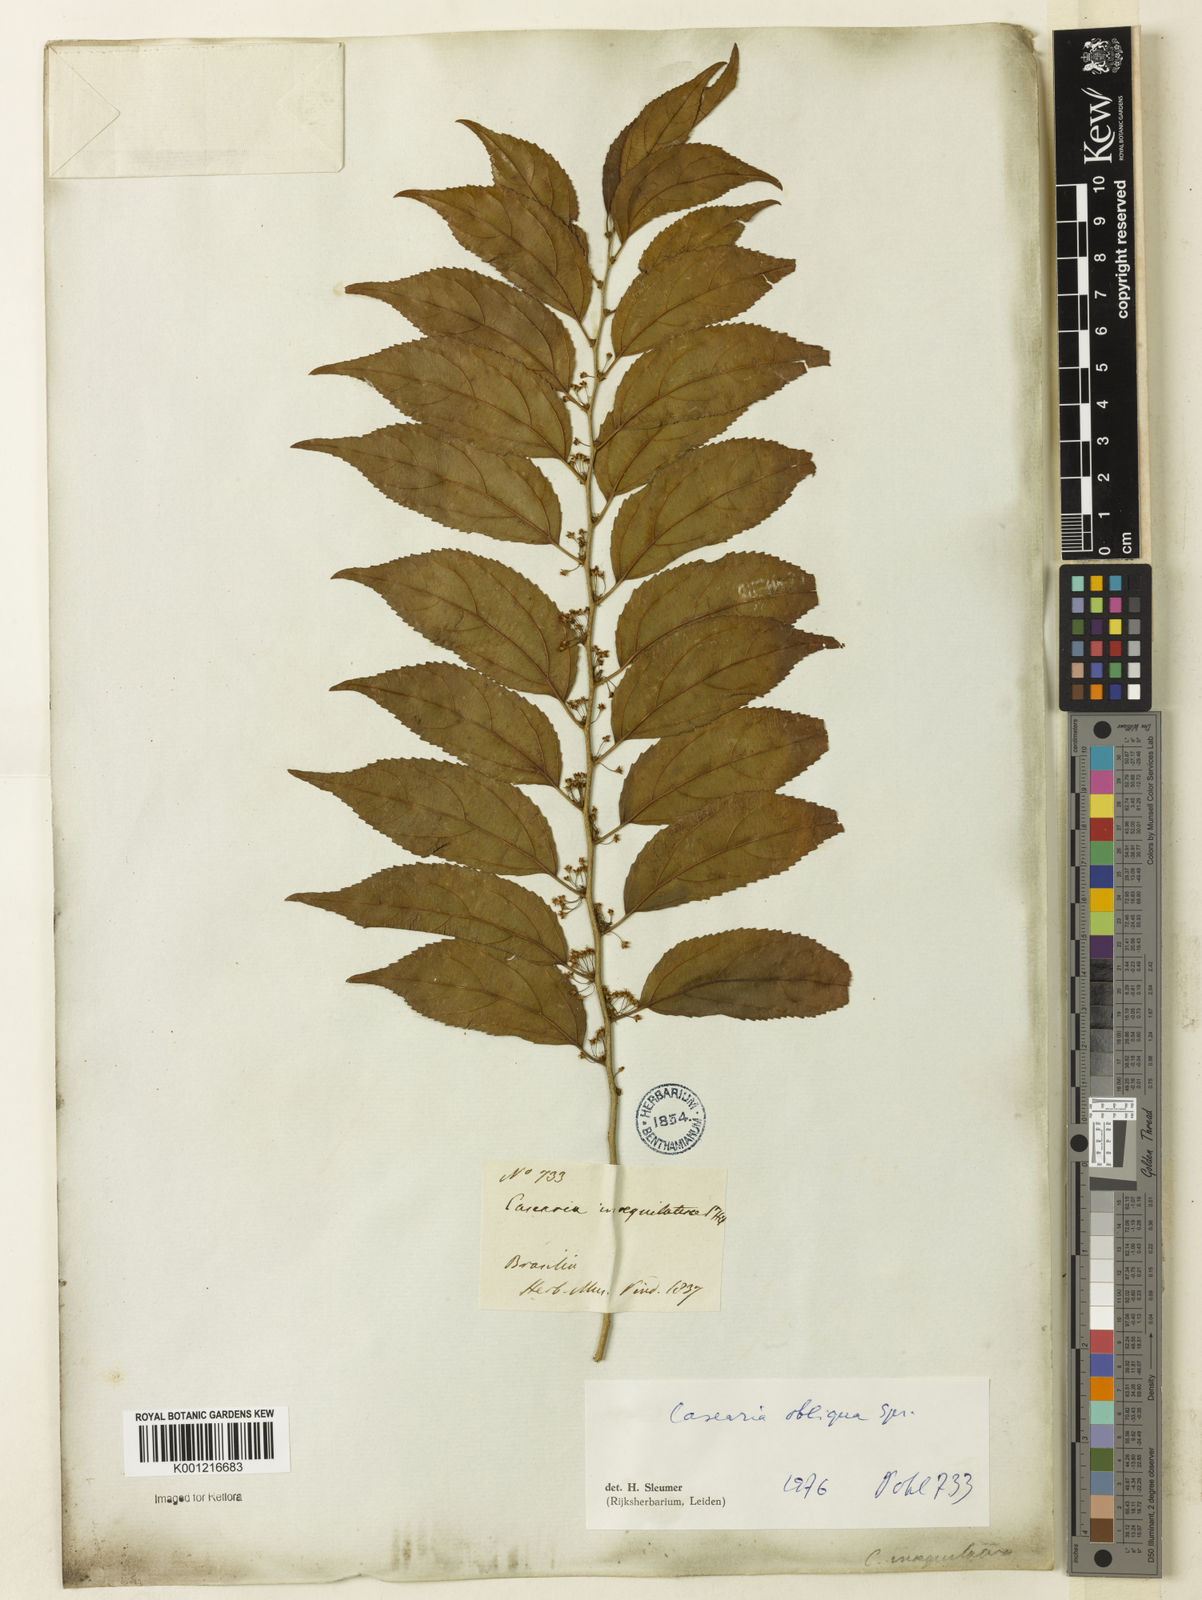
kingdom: Plantae
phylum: Tracheophyta
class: Magnoliopsida
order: Malpighiales
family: Salicaceae
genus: Casearia
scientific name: Casearia obliqua
